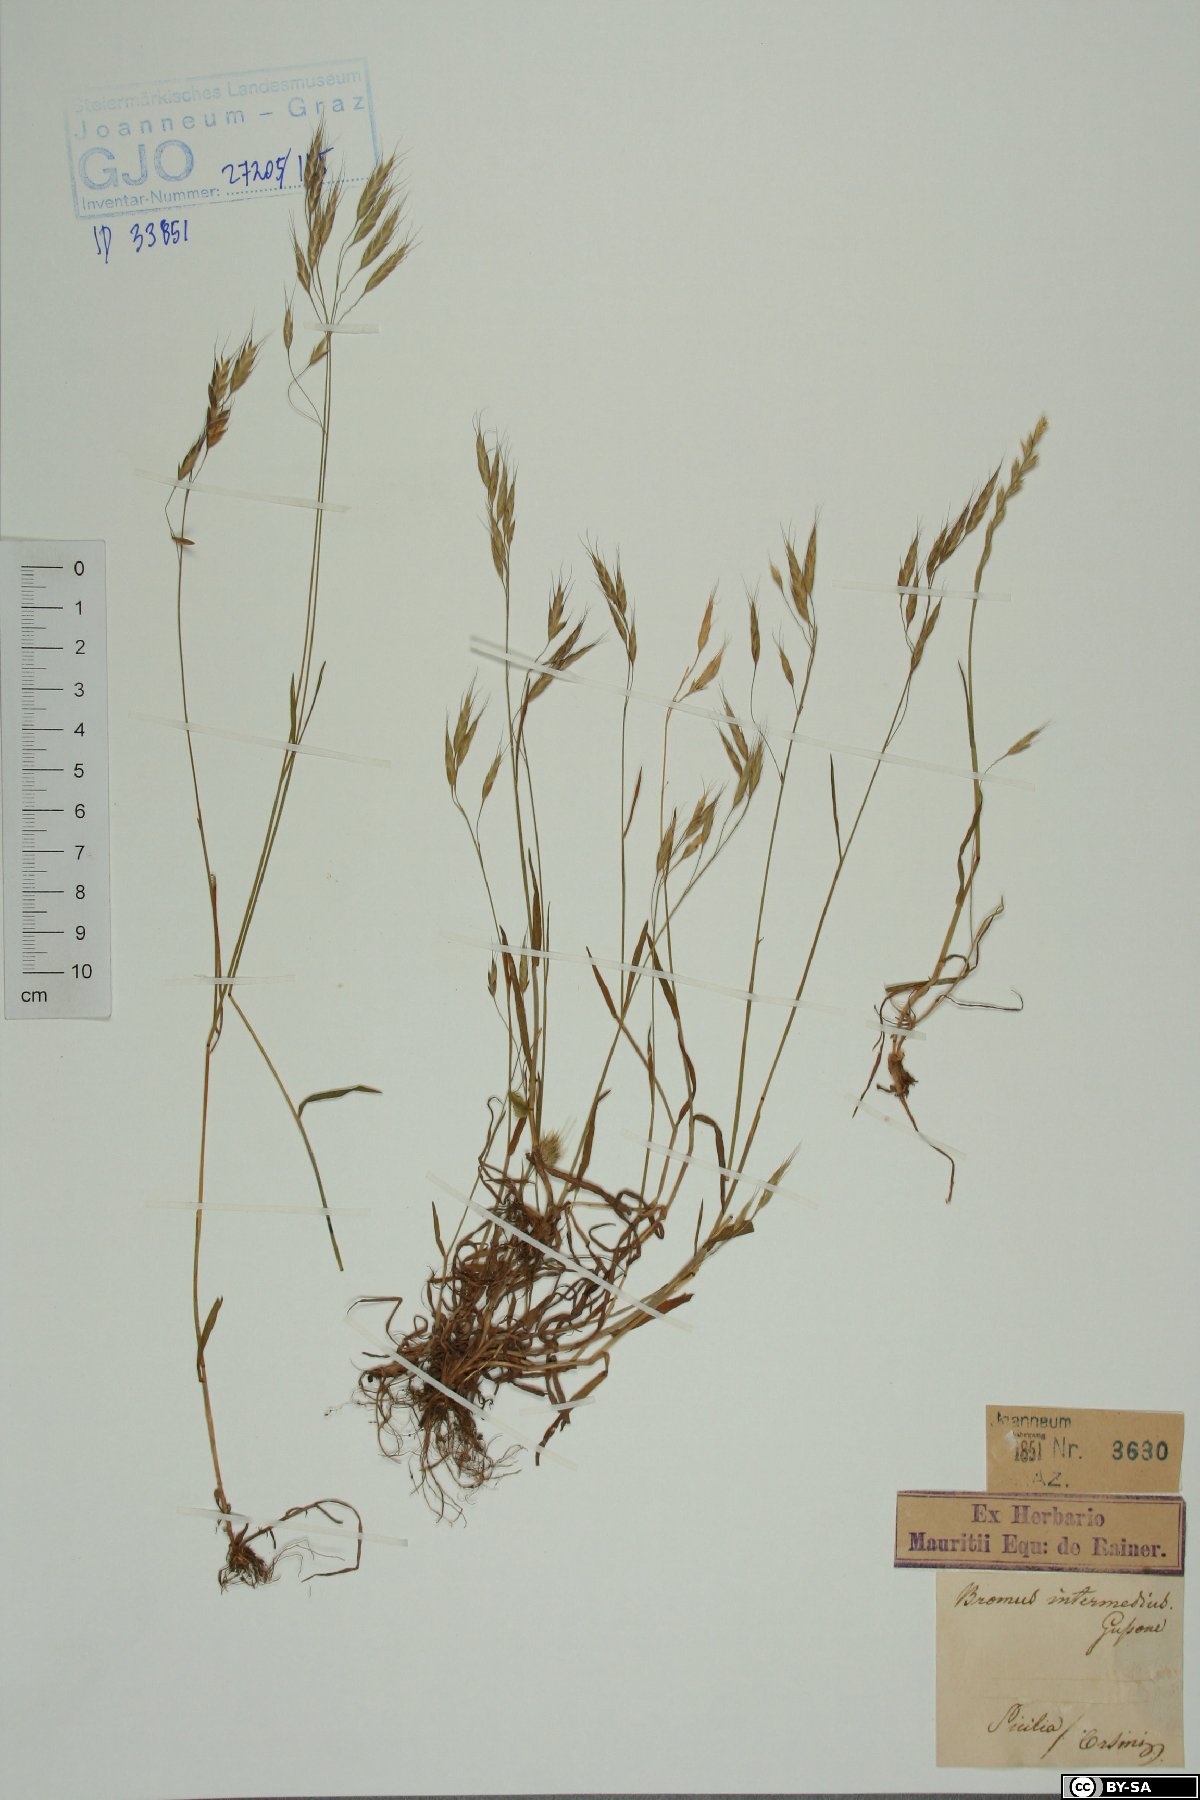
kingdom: Plantae
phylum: Tracheophyta
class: Liliopsida
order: Poales
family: Poaceae
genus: Bromus
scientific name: Bromus intermedius
